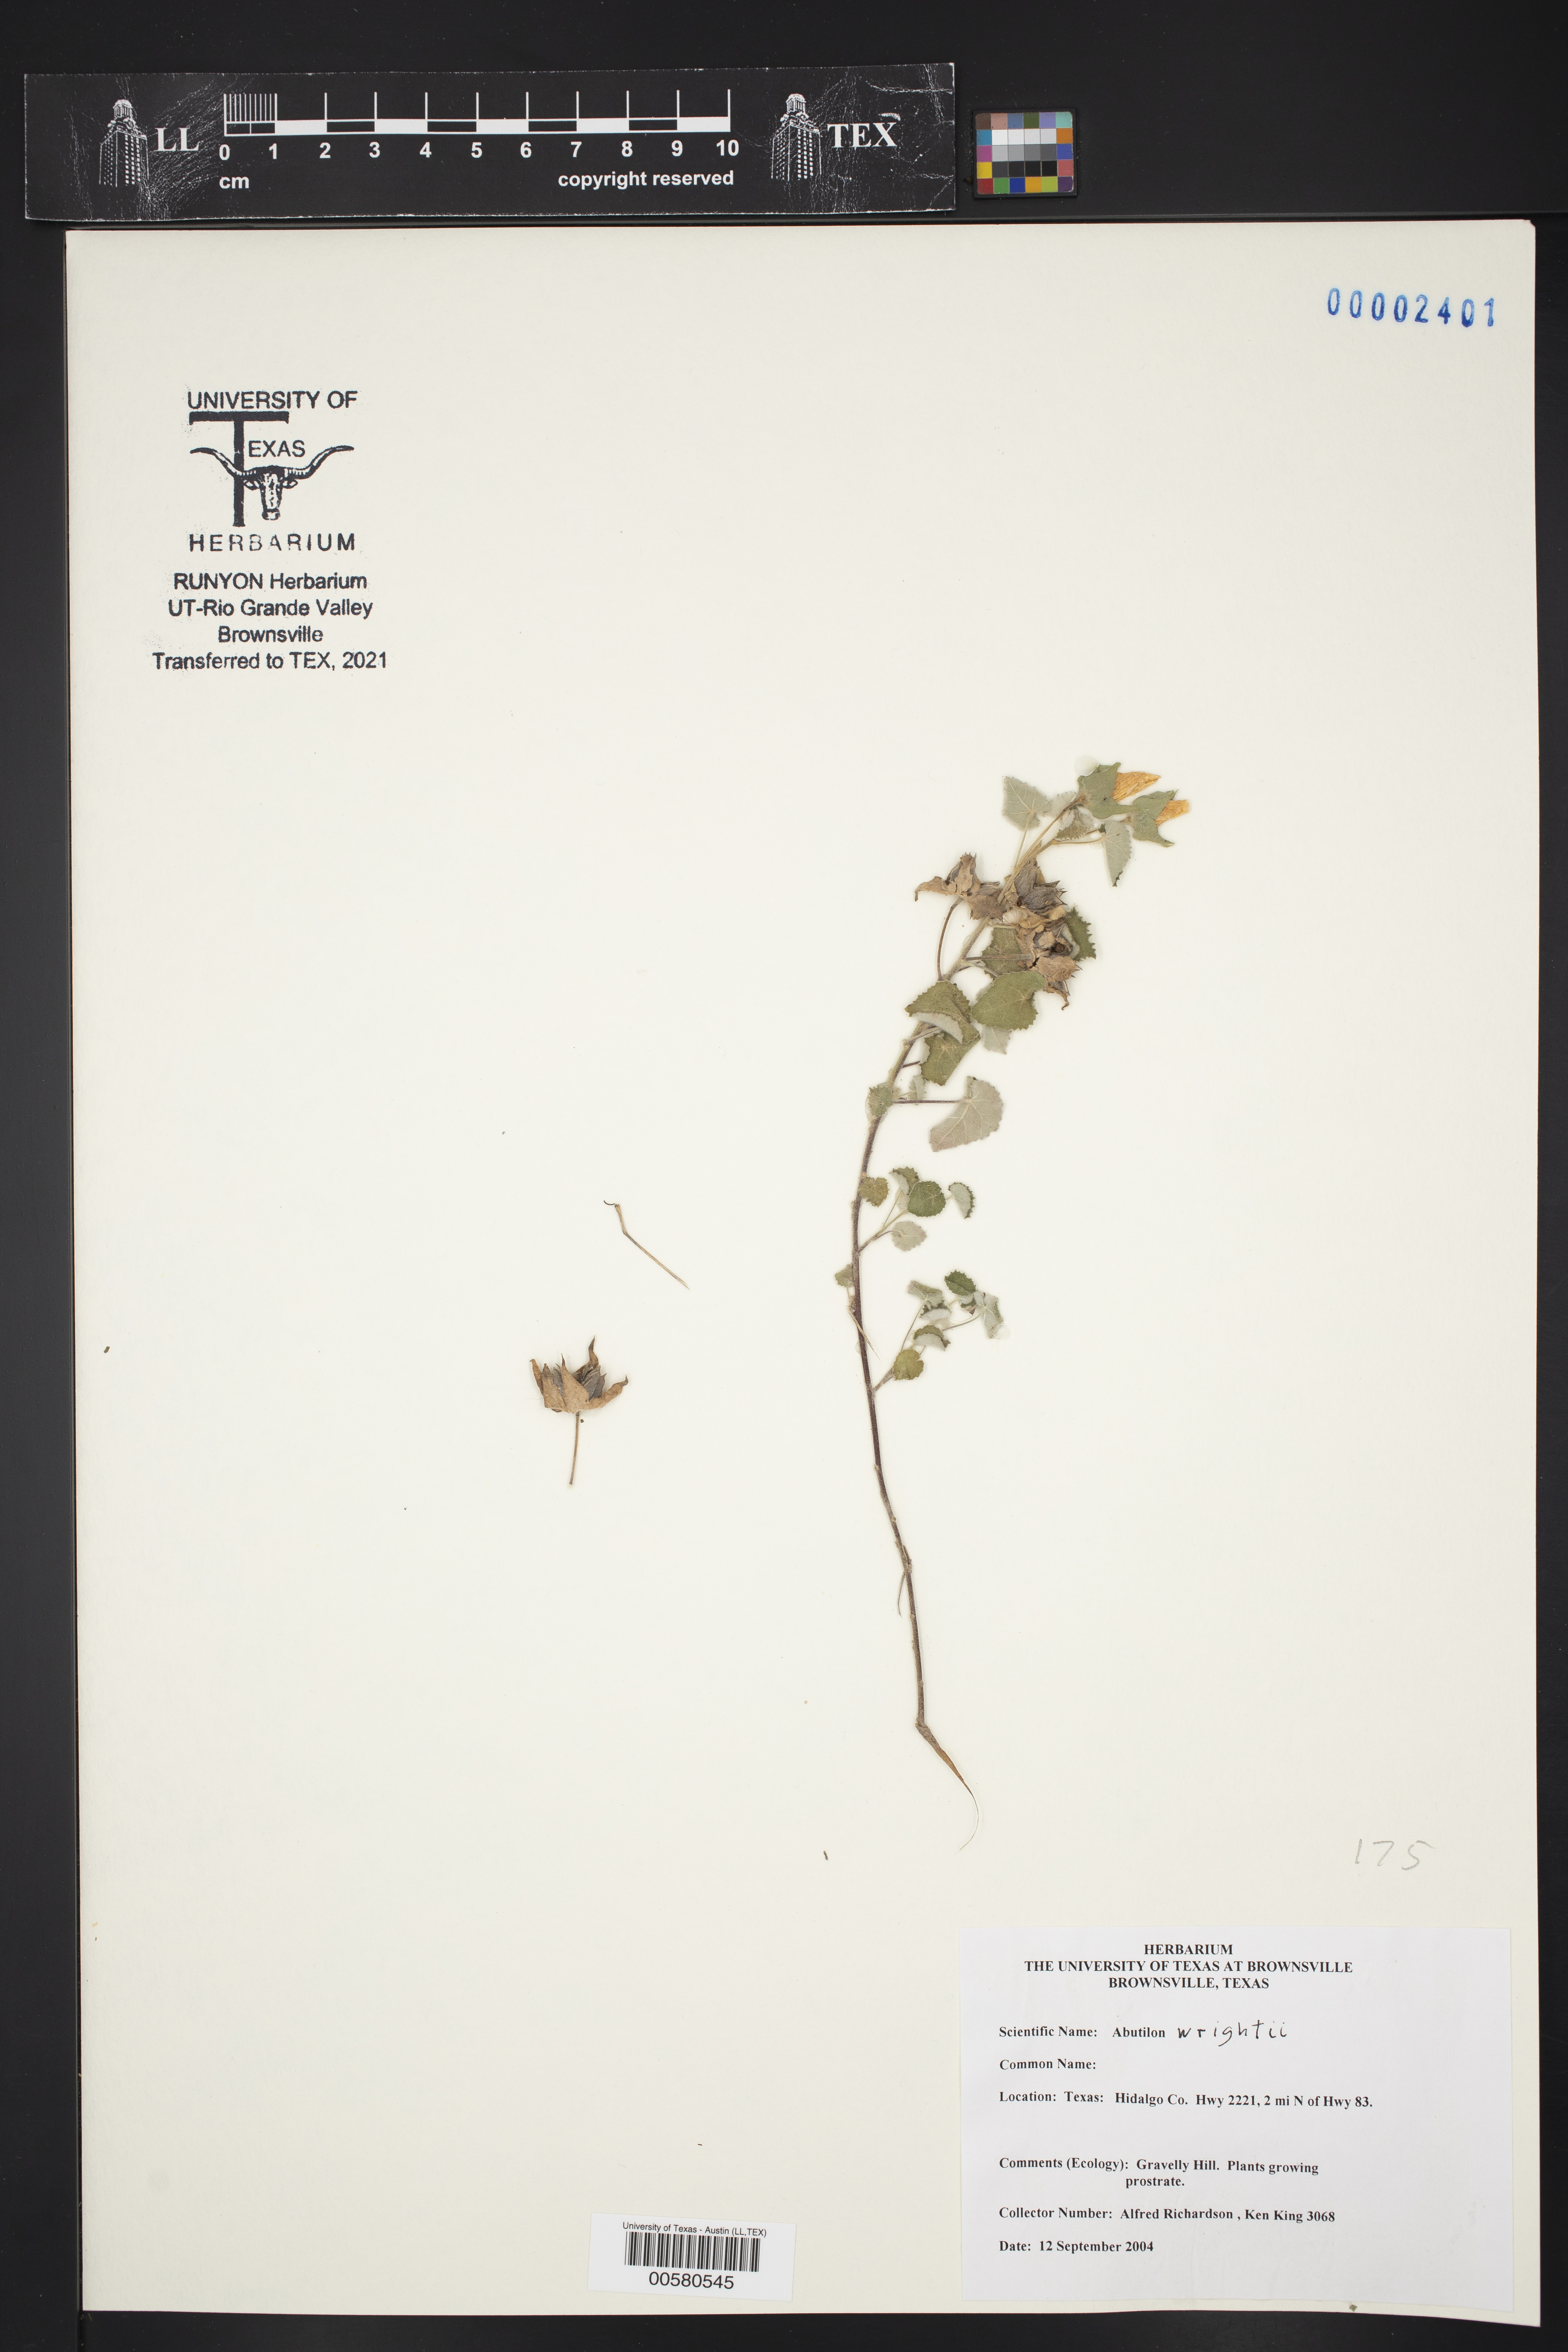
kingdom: Plantae
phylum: Tracheophyta
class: Magnoliopsida
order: Malvales
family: Malvaceae
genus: Abutilon
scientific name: Abutilon wrightii
